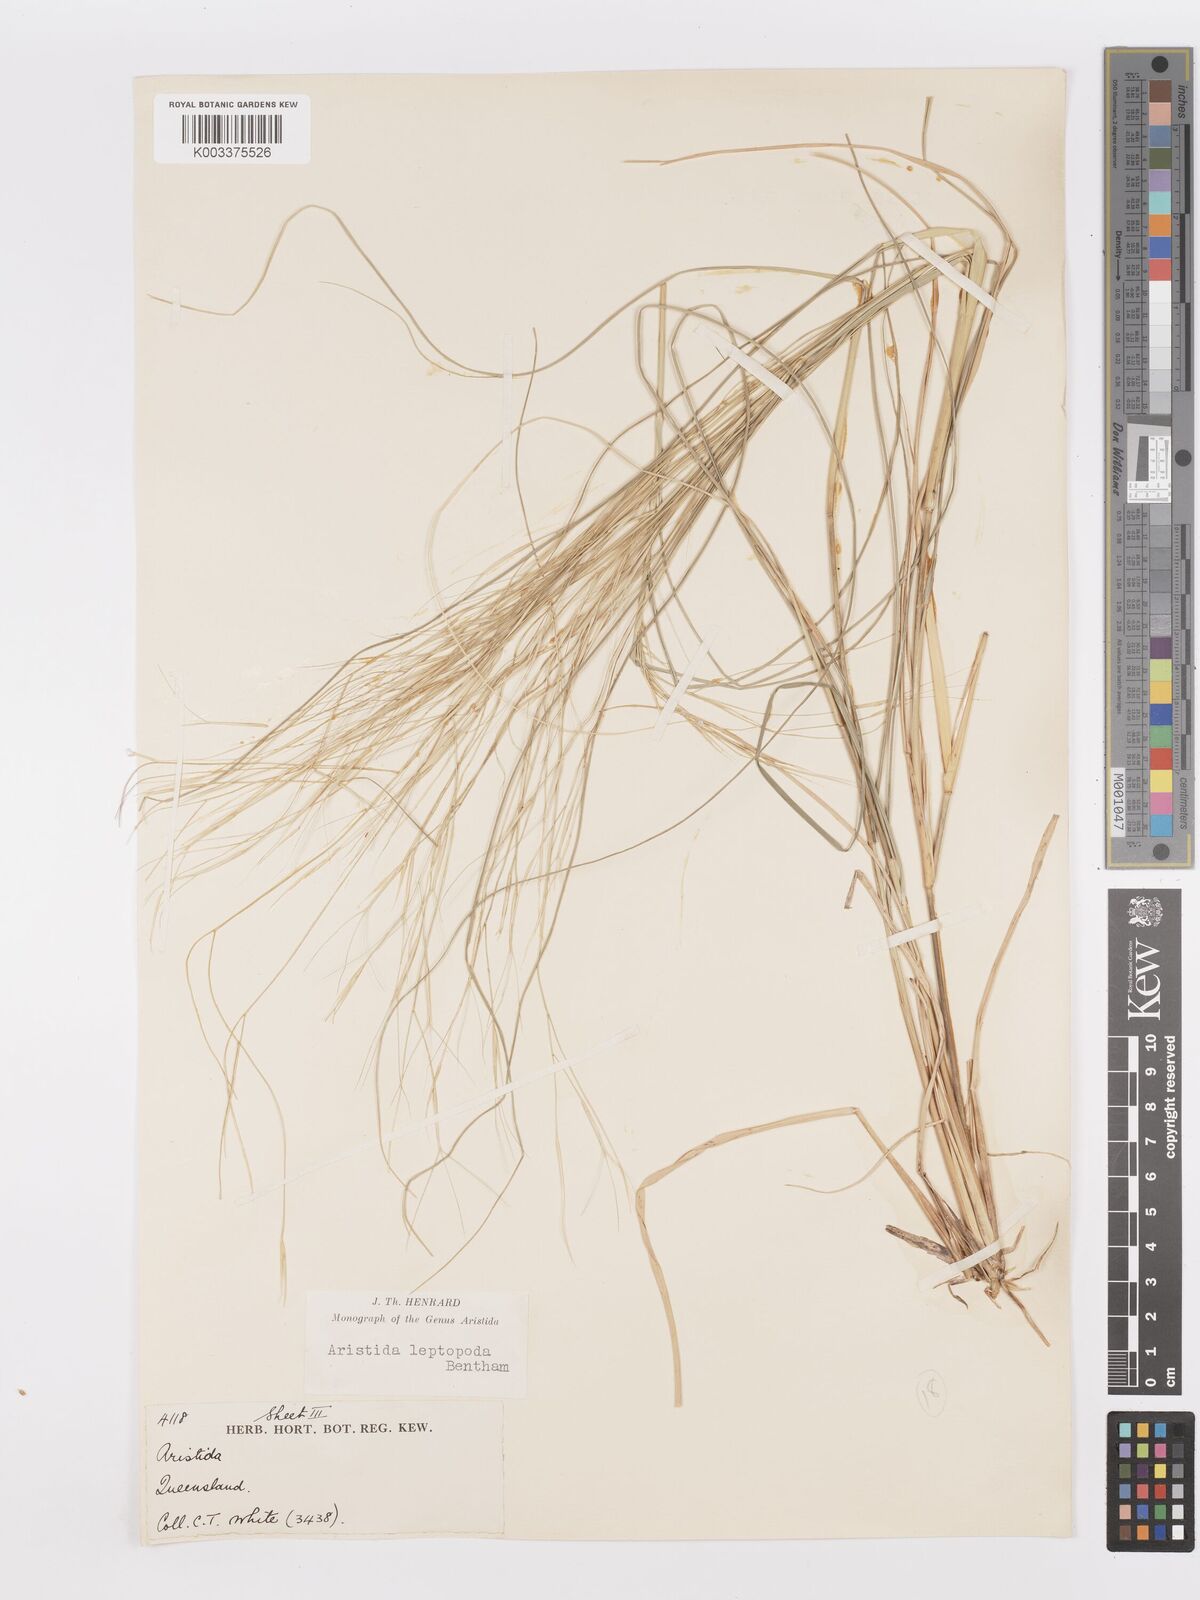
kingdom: Plantae
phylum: Tracheophyta
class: Liliopsida
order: Poales
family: Poaceae
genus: Aristida
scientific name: Aristida leptopoda
